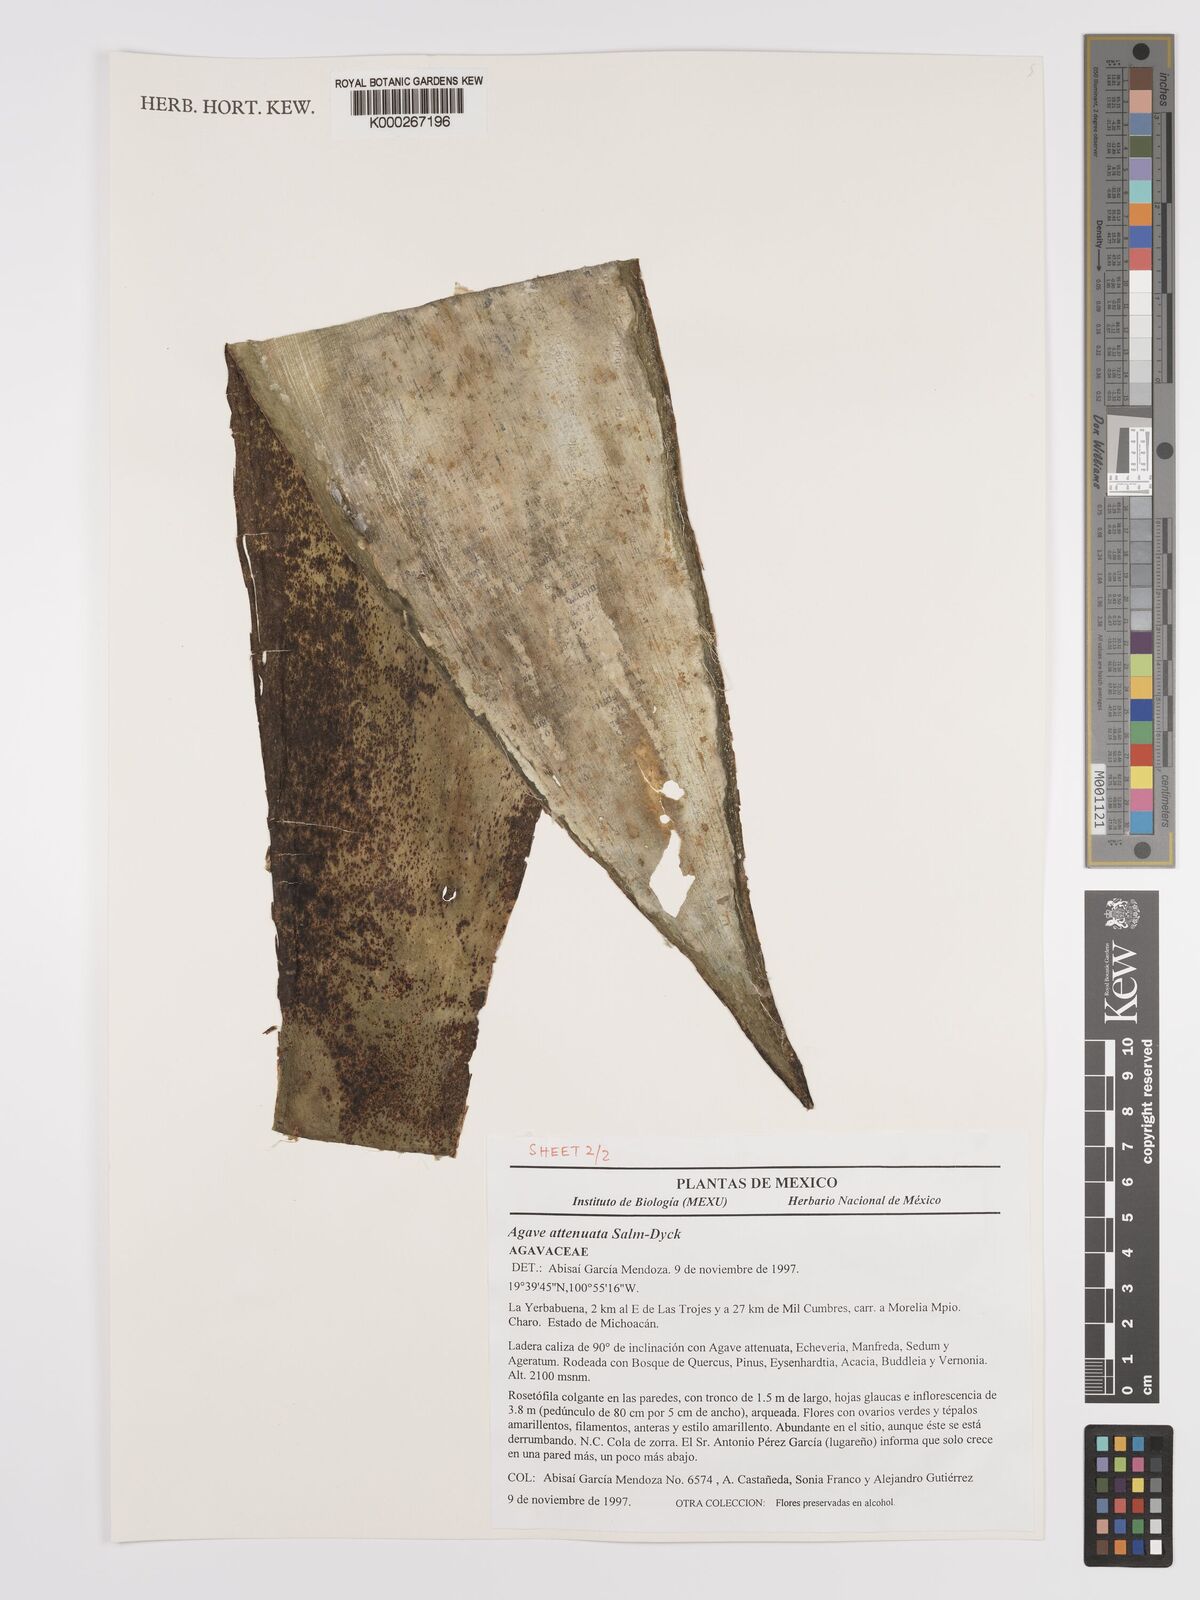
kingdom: Plantae
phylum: Tracheophyta
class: Liliopsida
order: Asparagales
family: Asparagaceae
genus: Agave
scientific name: Agave attenuata
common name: Fox tail agave
